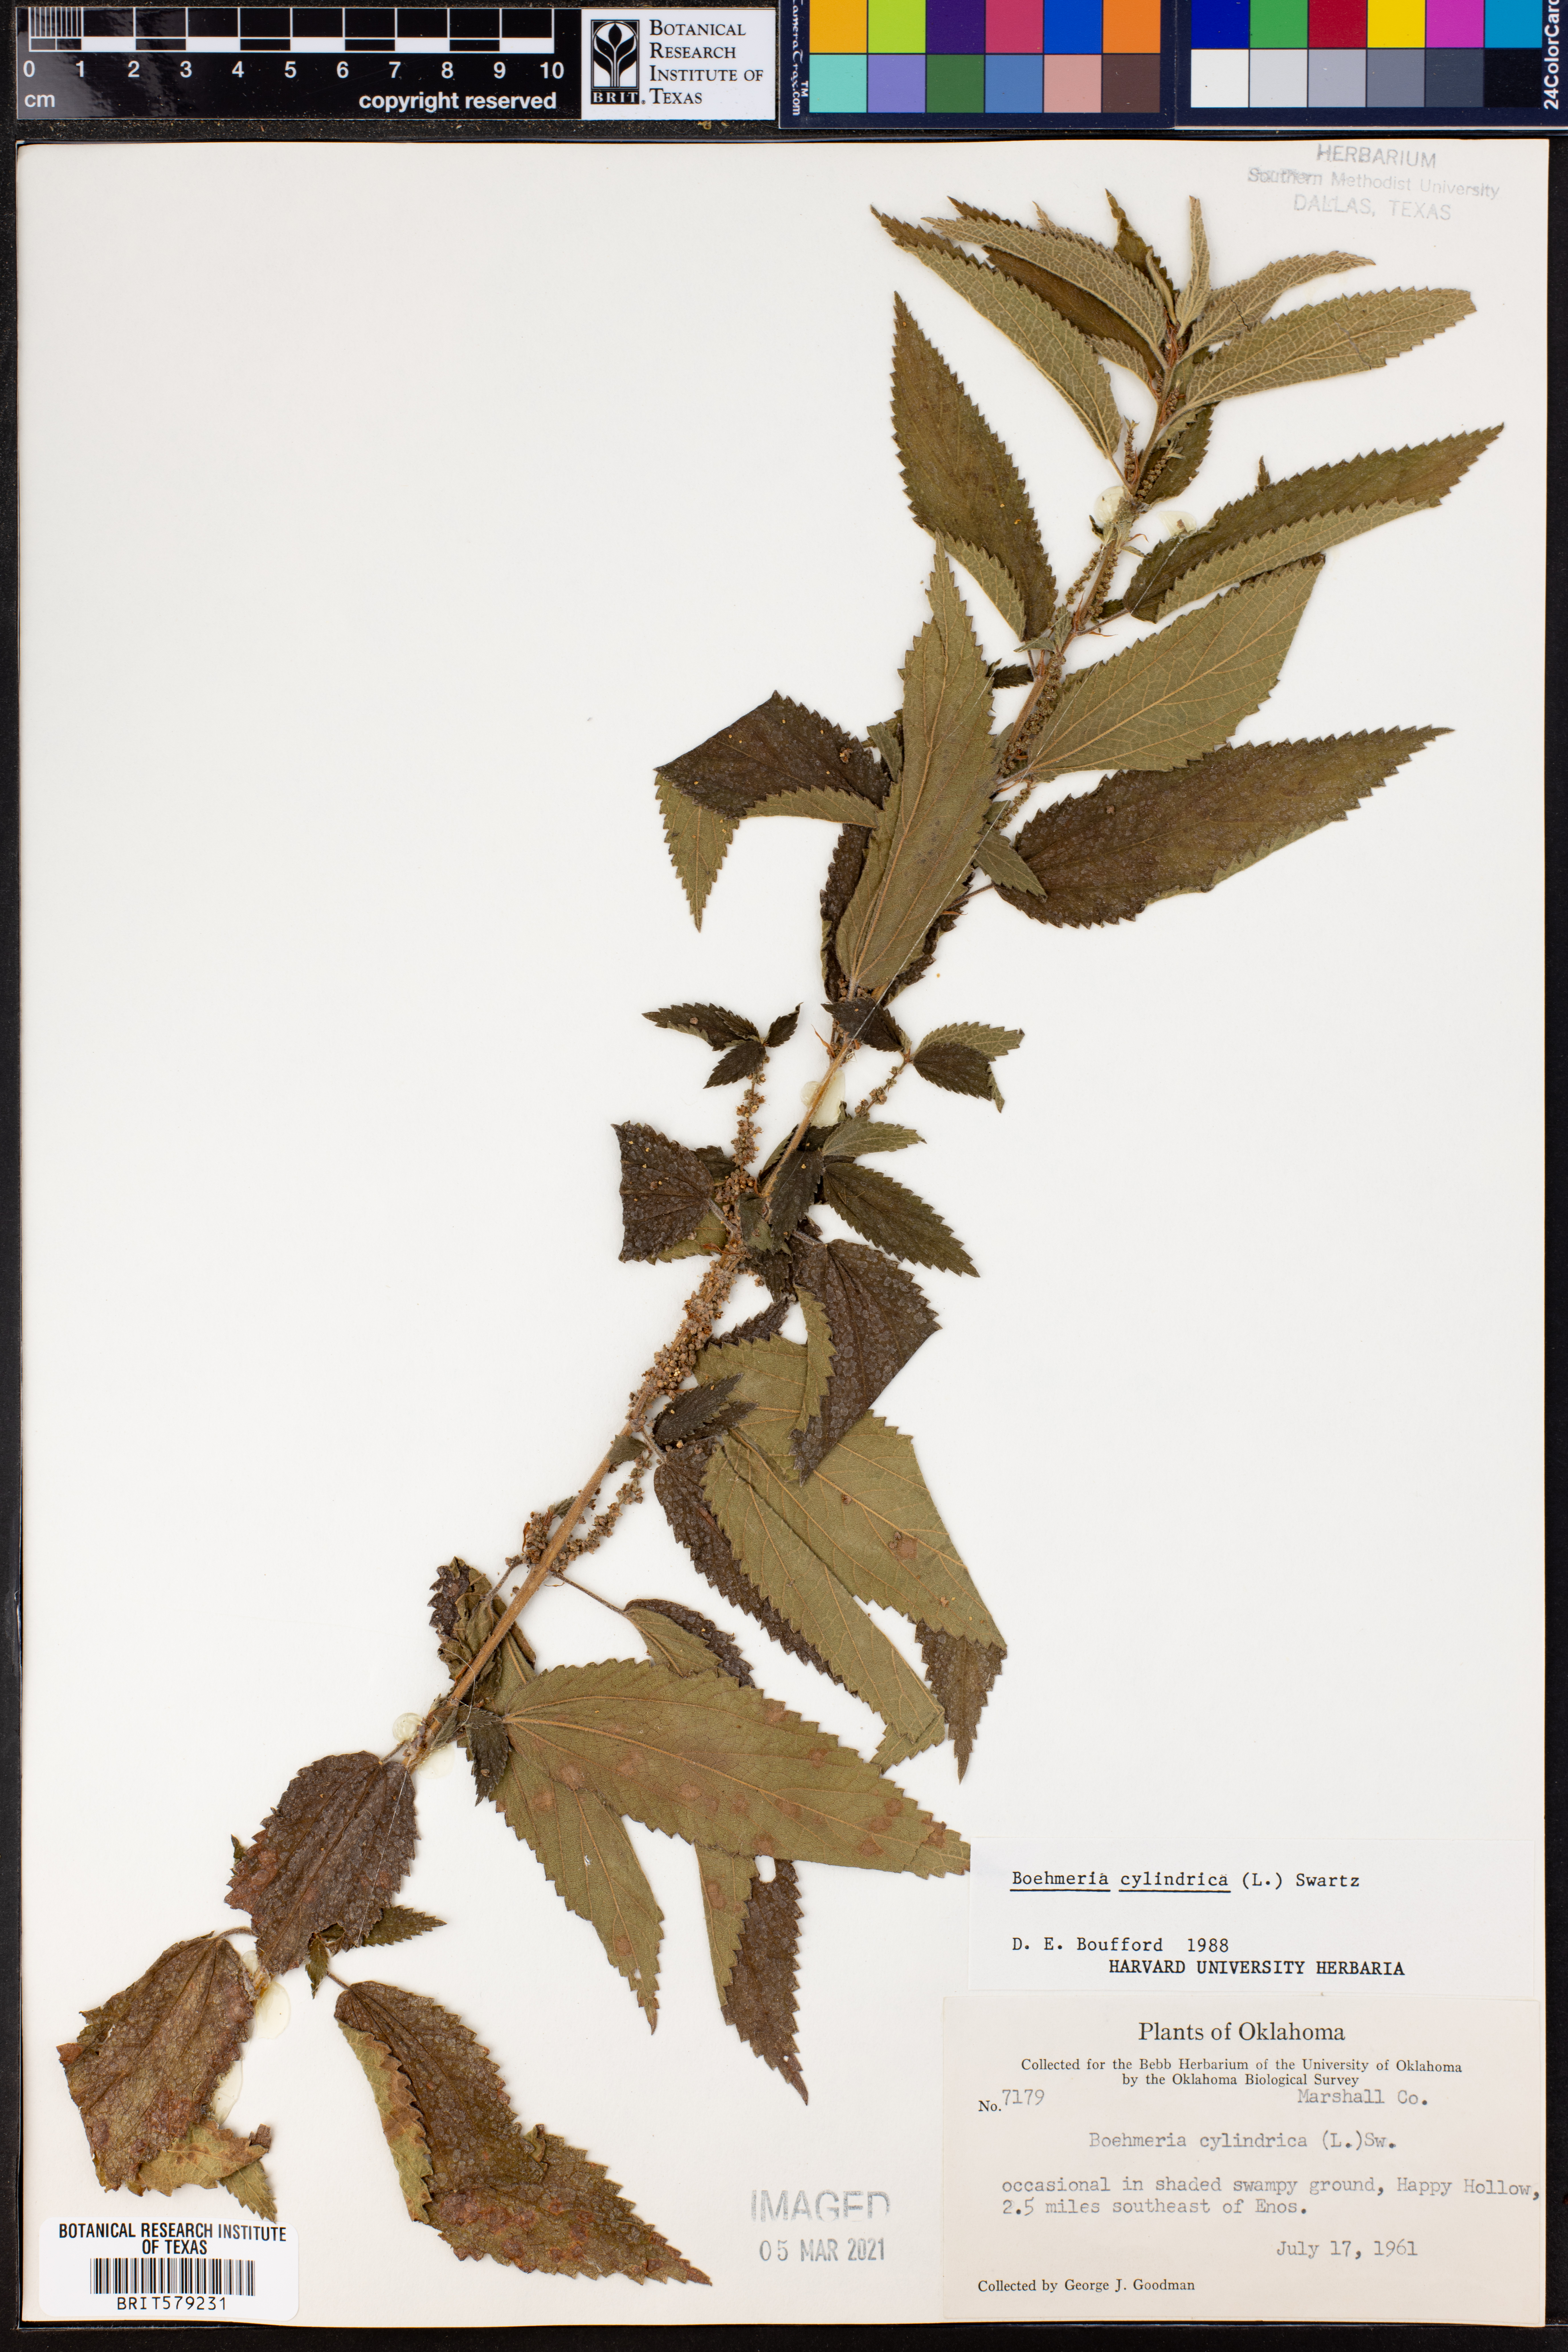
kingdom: Plantae
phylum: Tracheophyta
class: Magnoliopsida
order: Rosales
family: Urticaceae
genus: Boehmeria
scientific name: Boehmeria cylindrica
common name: Bog-hemp
